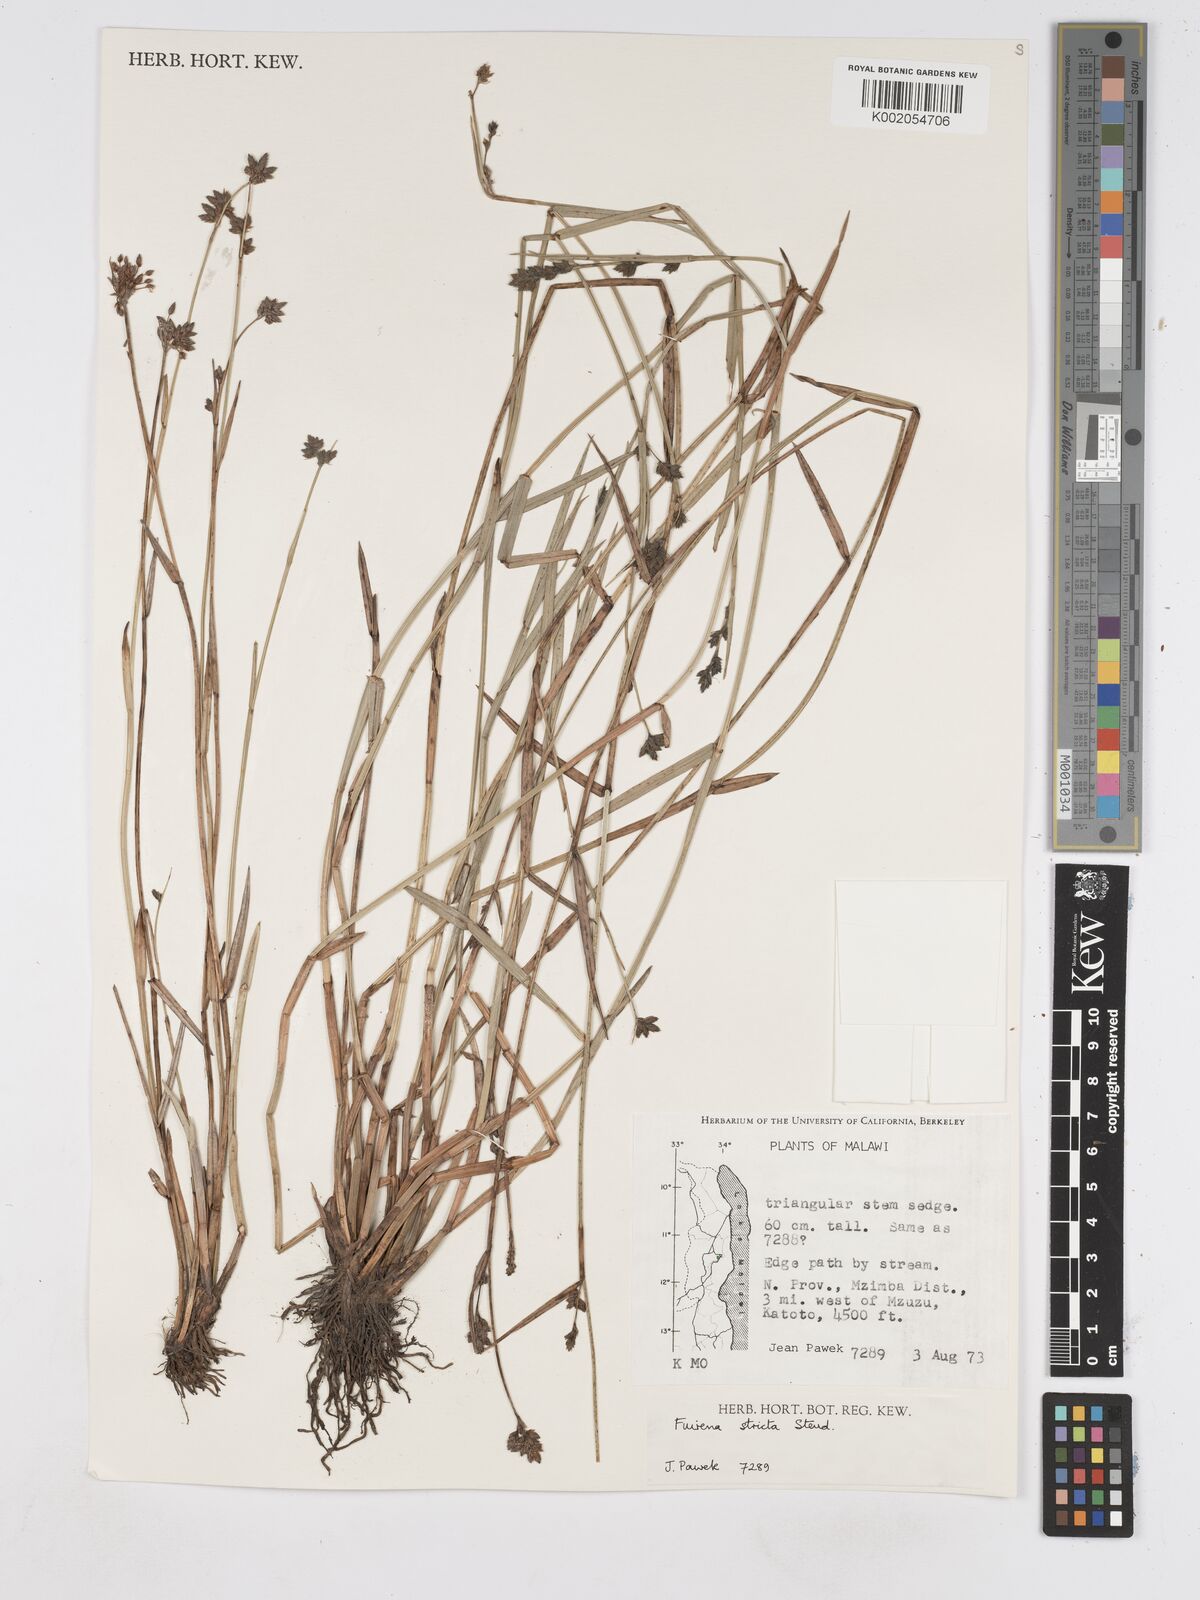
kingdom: Plantae
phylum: Tracheophyta
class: Liliopsida
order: Poales
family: Cyperaceae
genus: Fuirena
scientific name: Fuirena stricta
